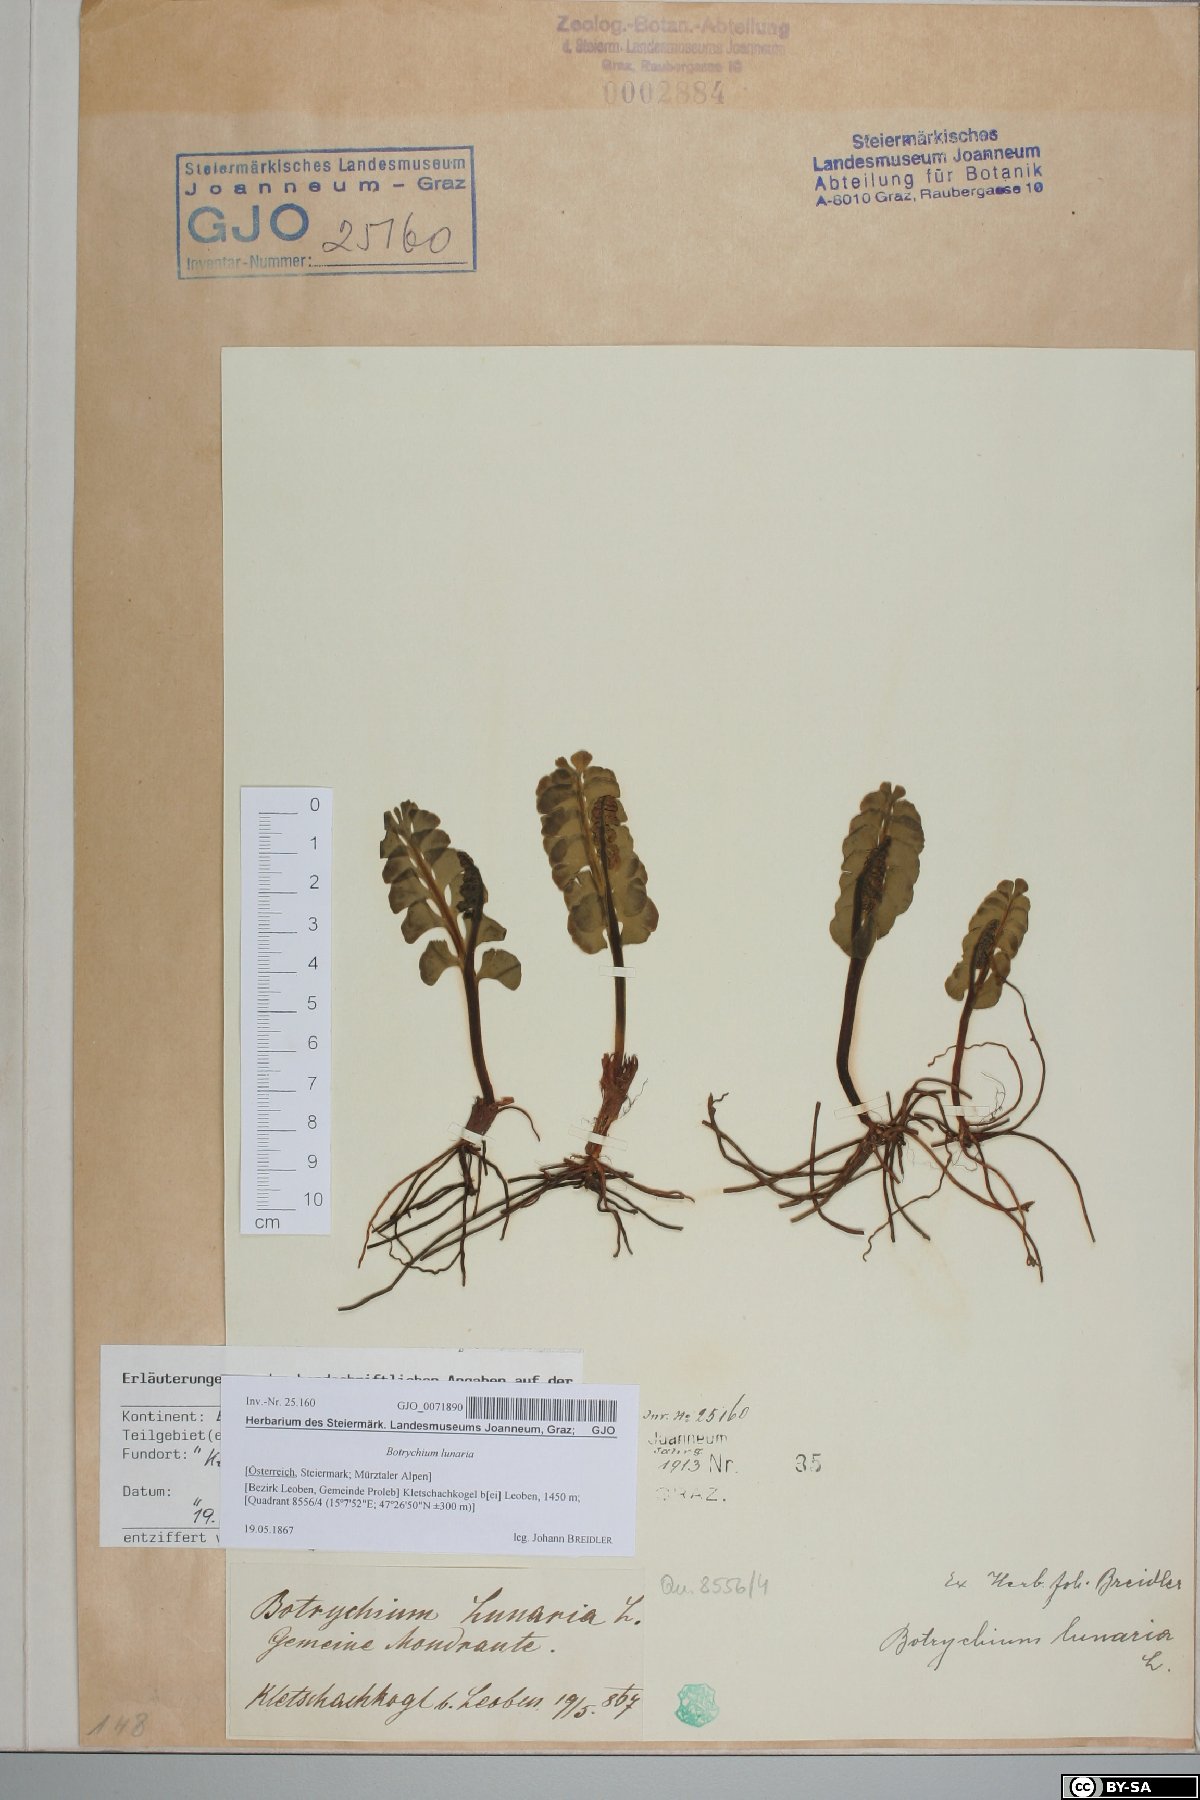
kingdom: Plantae
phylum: Tracheophyta
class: Polypodiopsida
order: Ophioglossales
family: Ophioglossaceae
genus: Botrychium
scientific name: Botrychium lunaria
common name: Moonwort
